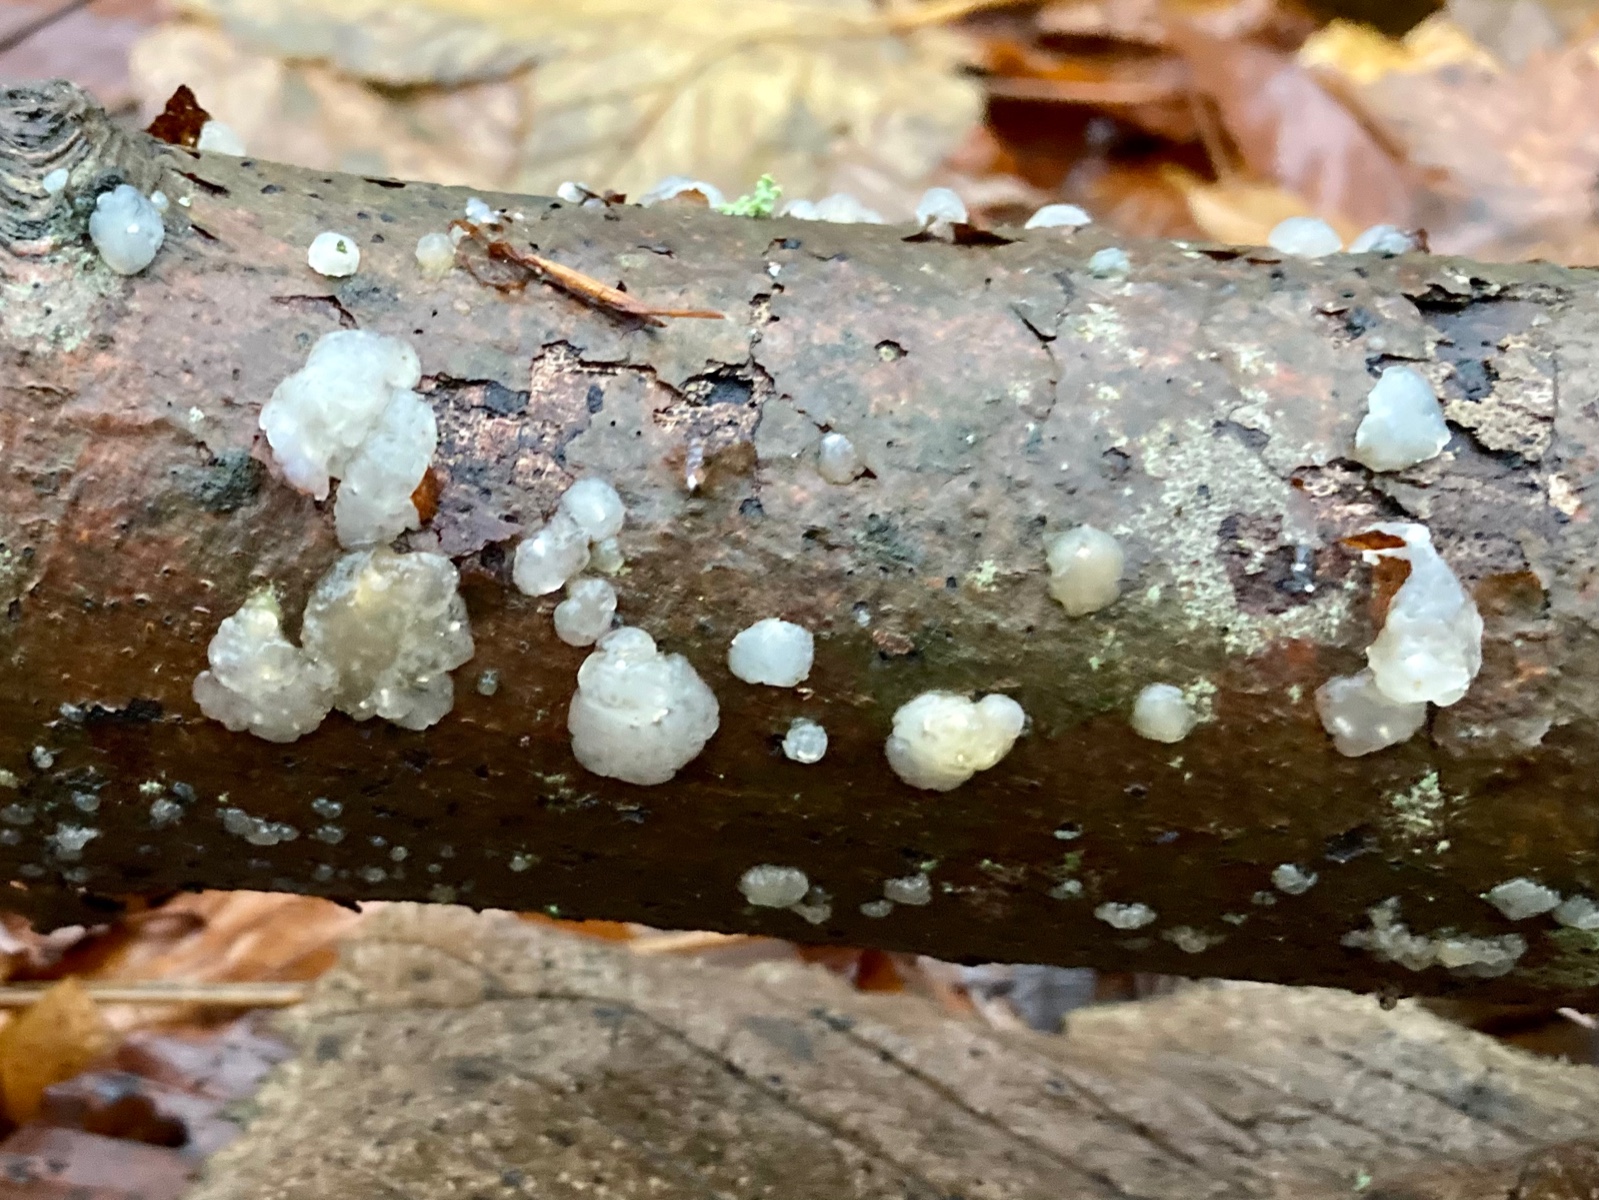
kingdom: Fungi
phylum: Basidiomycota
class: Agaricomycetes
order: Auriculariales
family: Hyaloriaceae
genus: Myxarium
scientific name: Myxarium nucleatum
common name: klar bævretop
